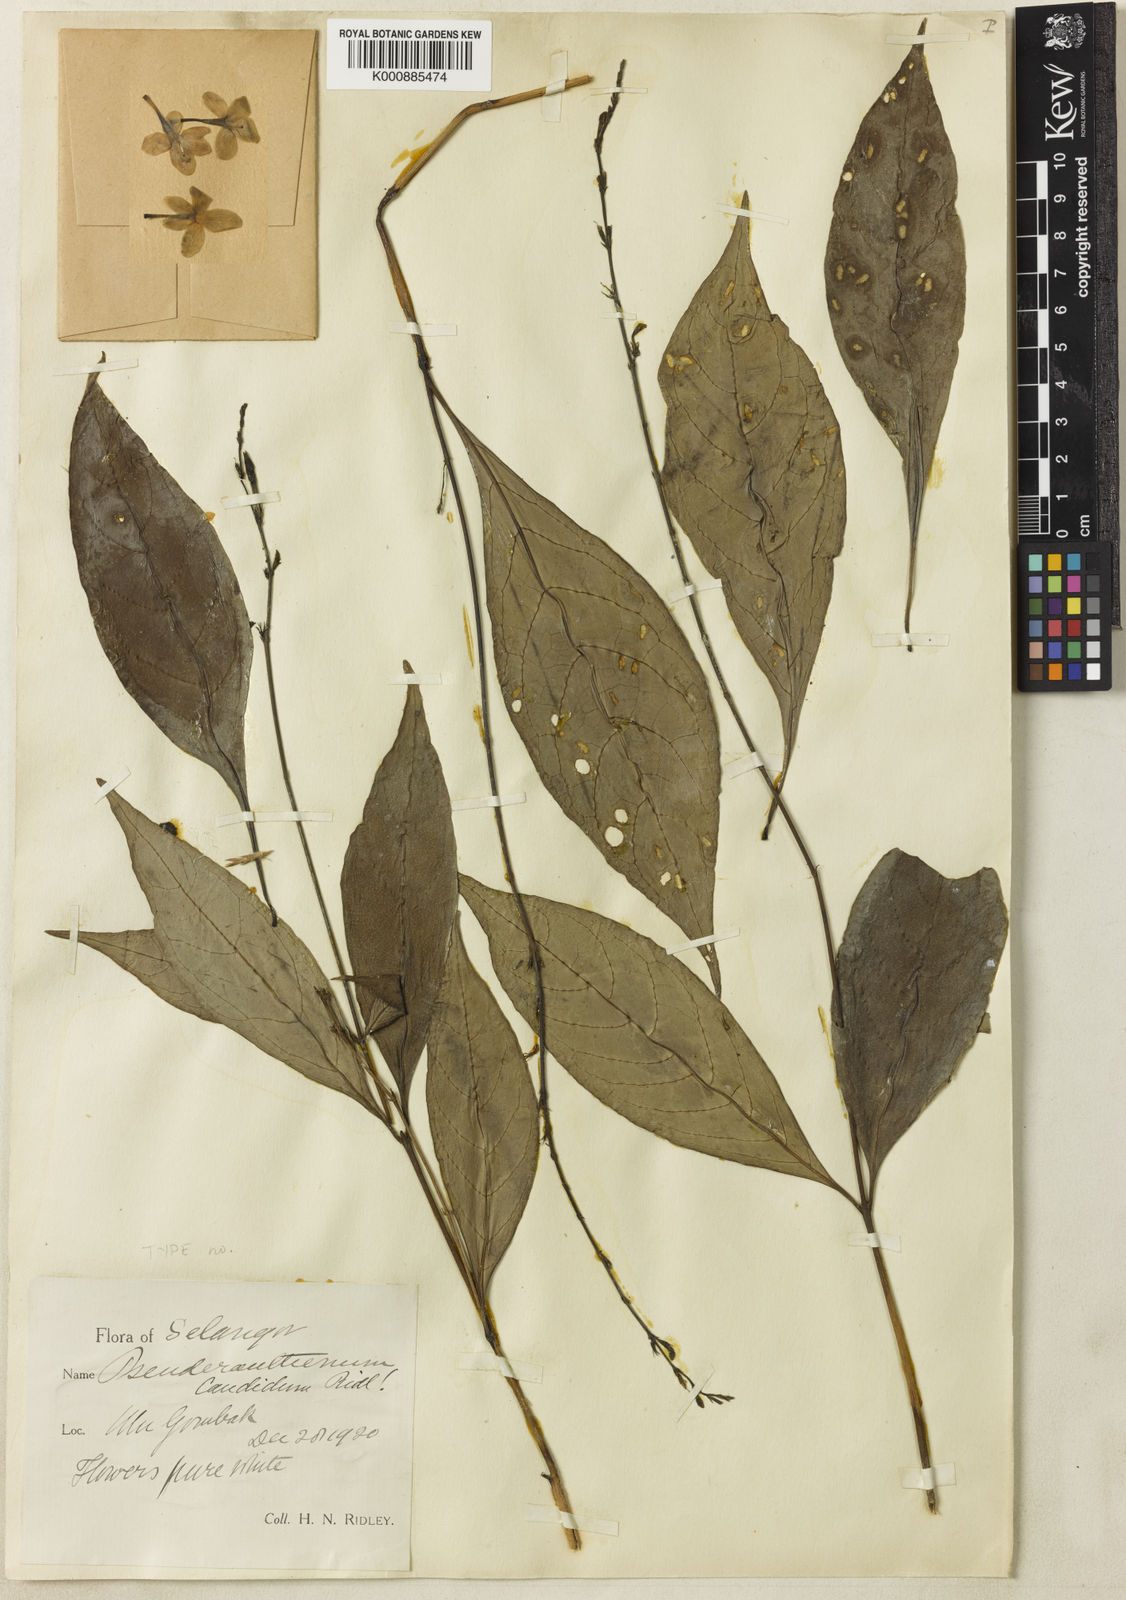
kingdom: Plantae
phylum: Tracheophyta
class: Magnoliopsida
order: Lamiales
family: Acanthaceae
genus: Pseuderanthemum
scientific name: Pseuderanthemum candidum
